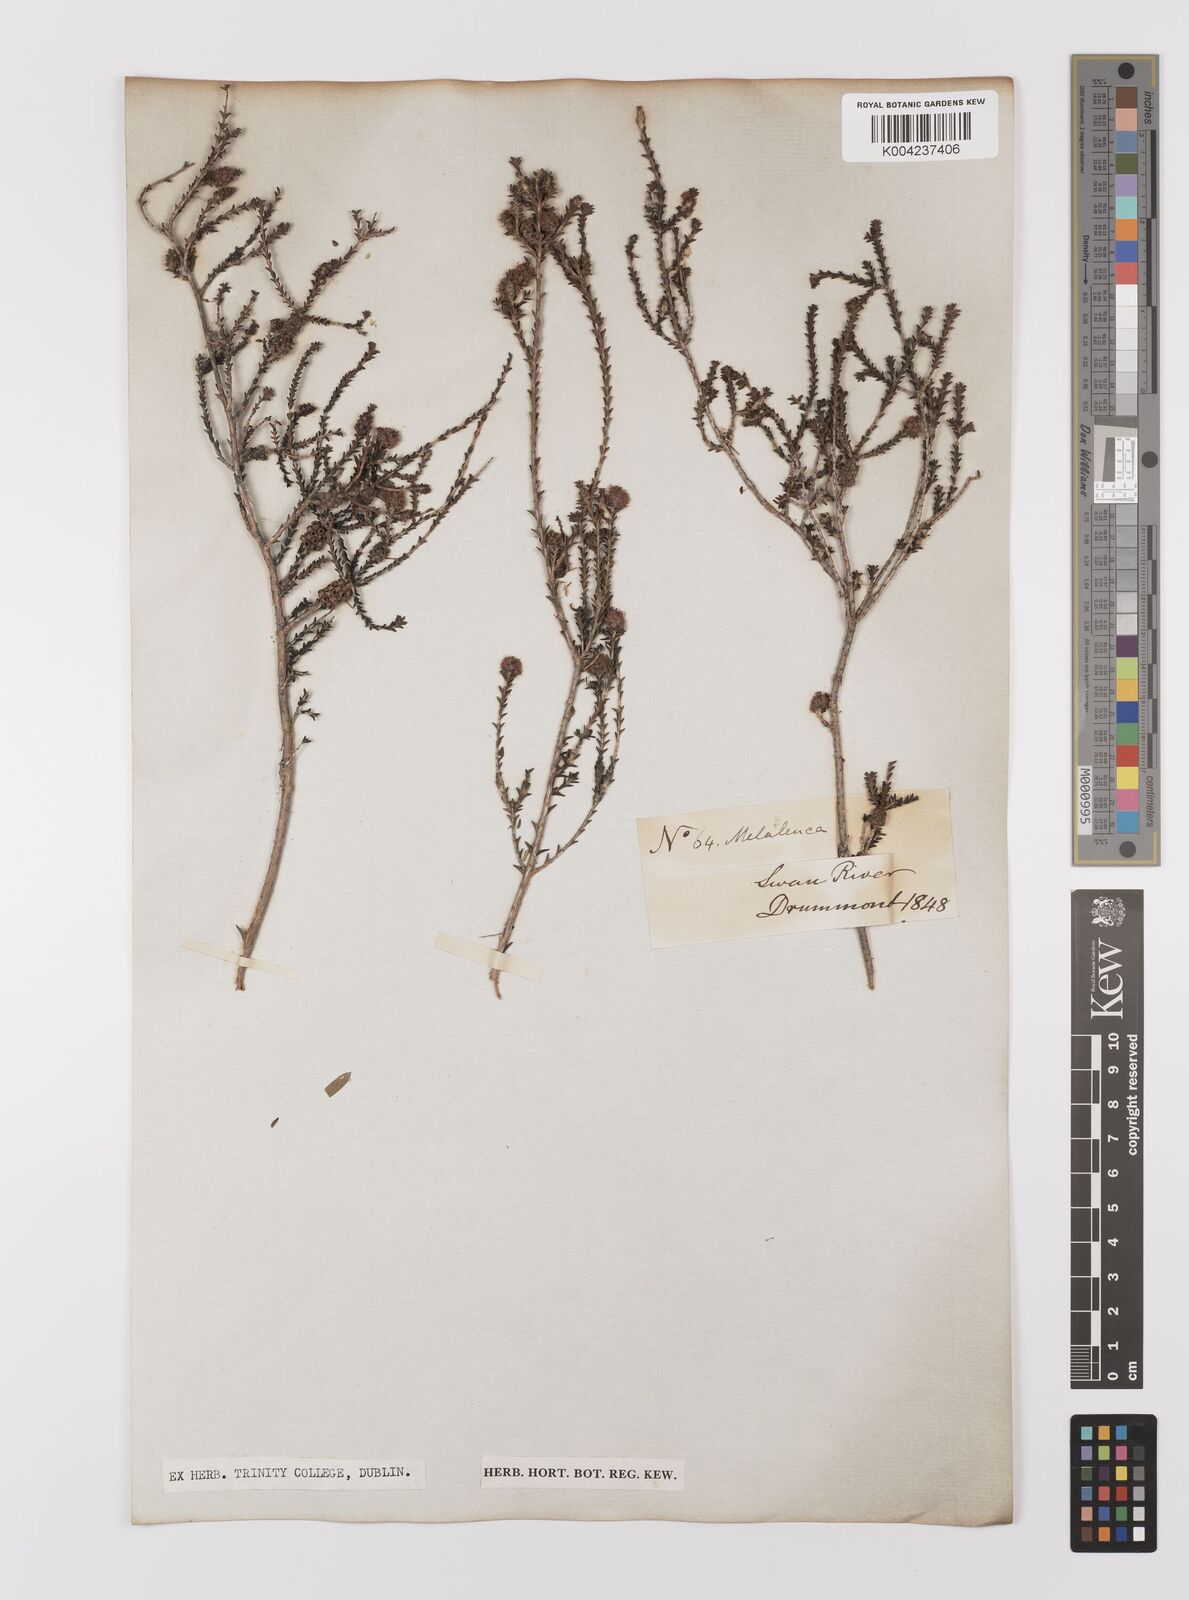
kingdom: Plantae
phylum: Tracheophyta
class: Magnoliopsida
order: Myrtales
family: Myrtaceae
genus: Melaleuca
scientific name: Melaleuca
